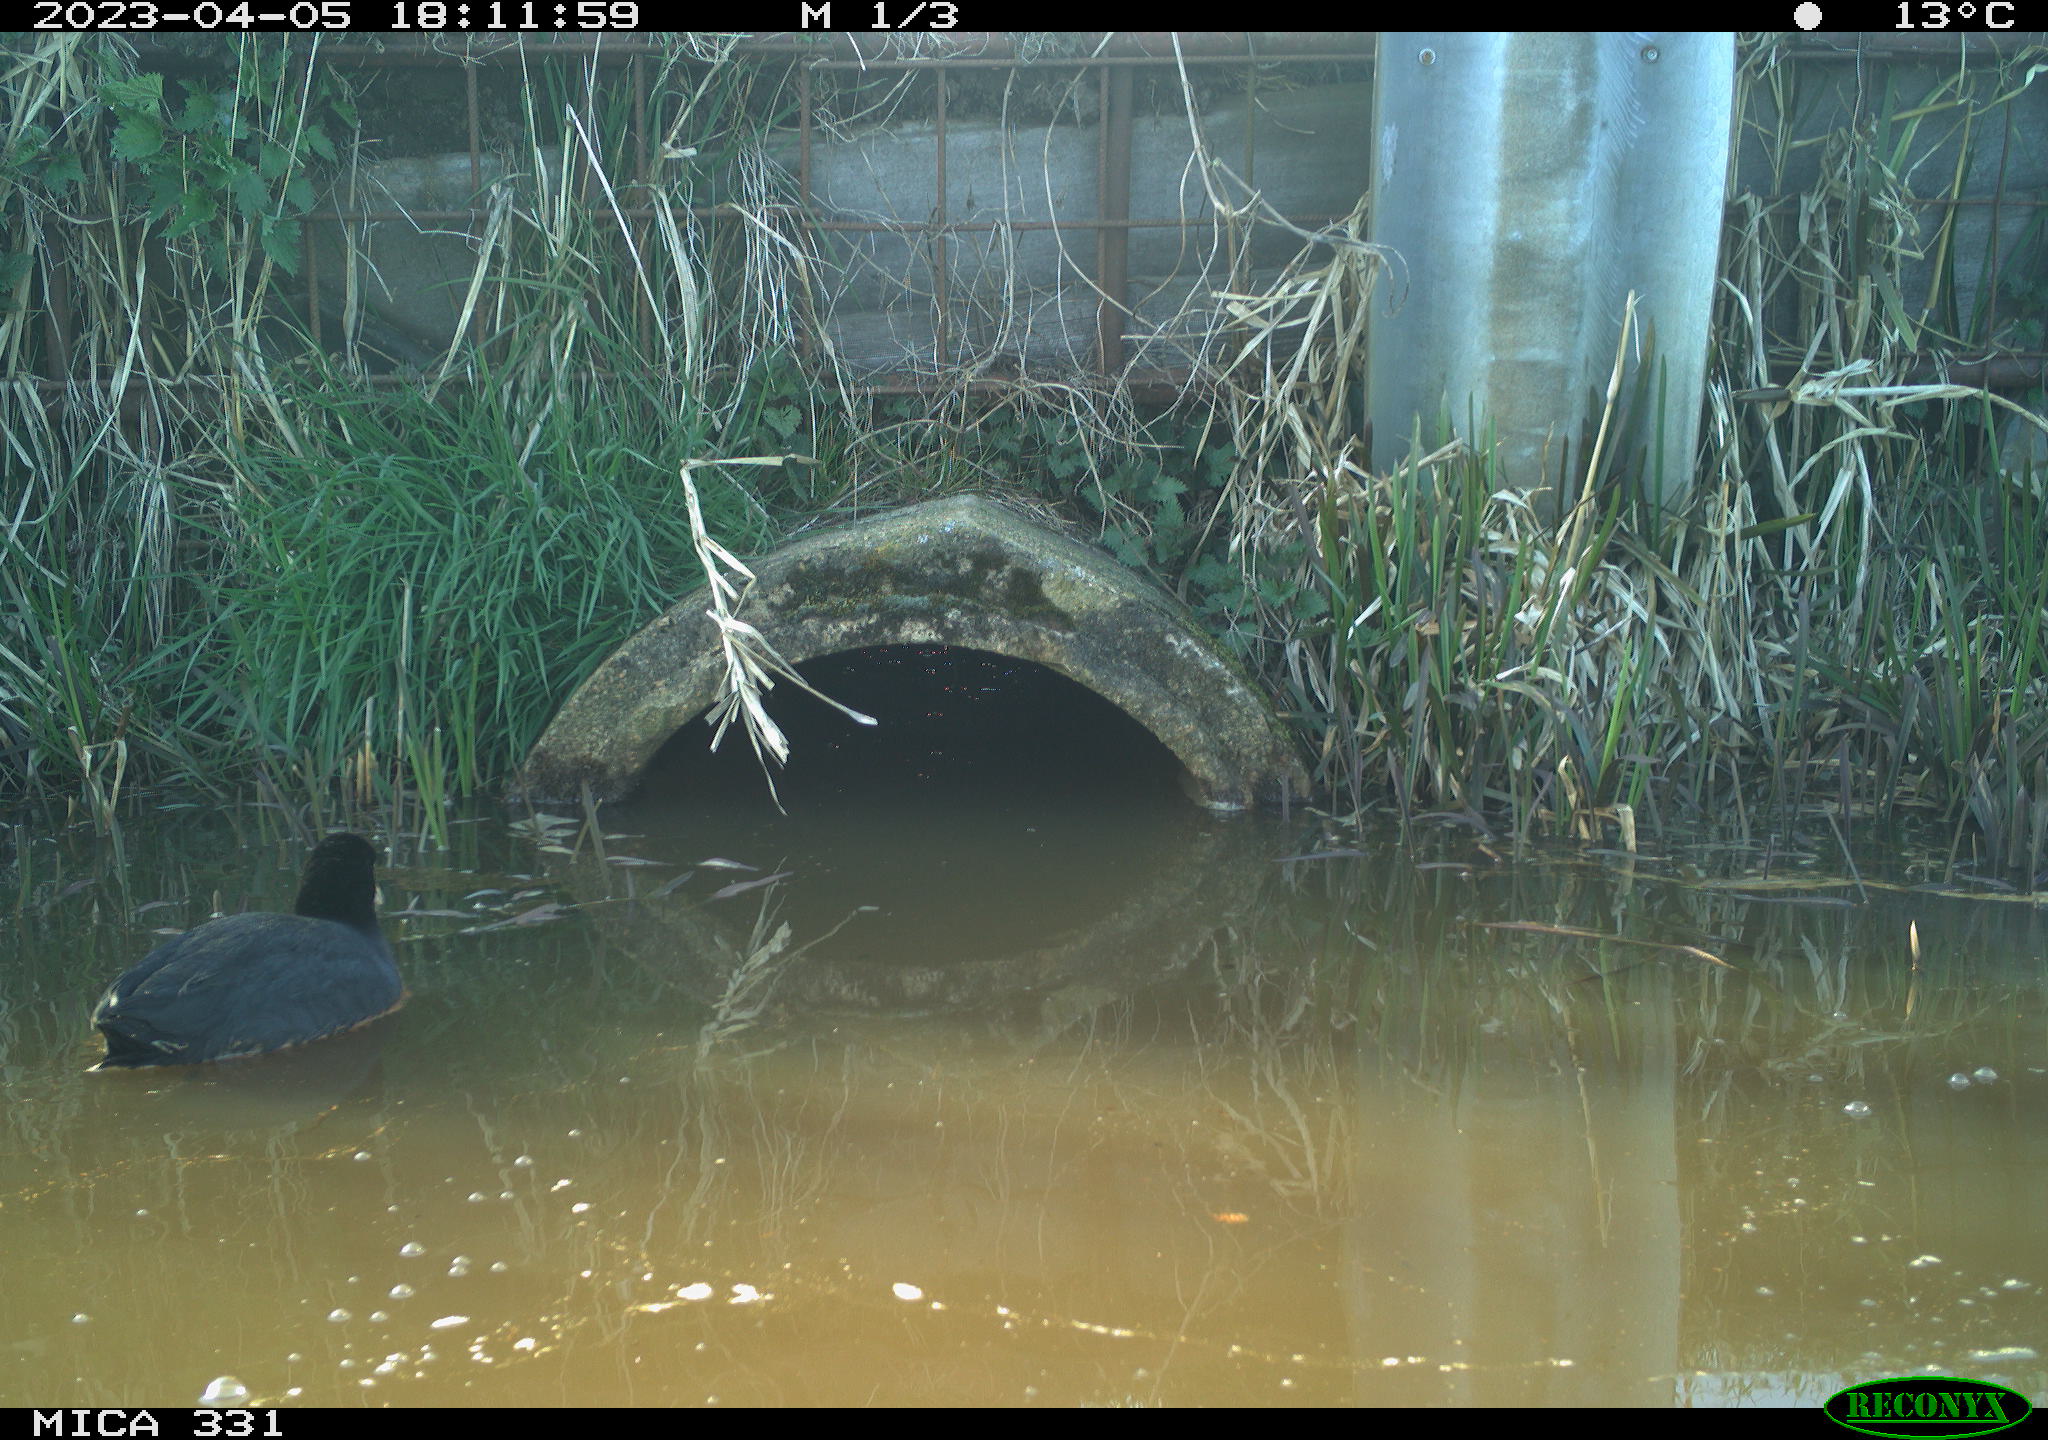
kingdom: Animalia
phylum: Chordata
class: Aves
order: Gruiformes
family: Rallidae
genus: Fulica
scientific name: Fulica atra
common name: Eurasian coot
